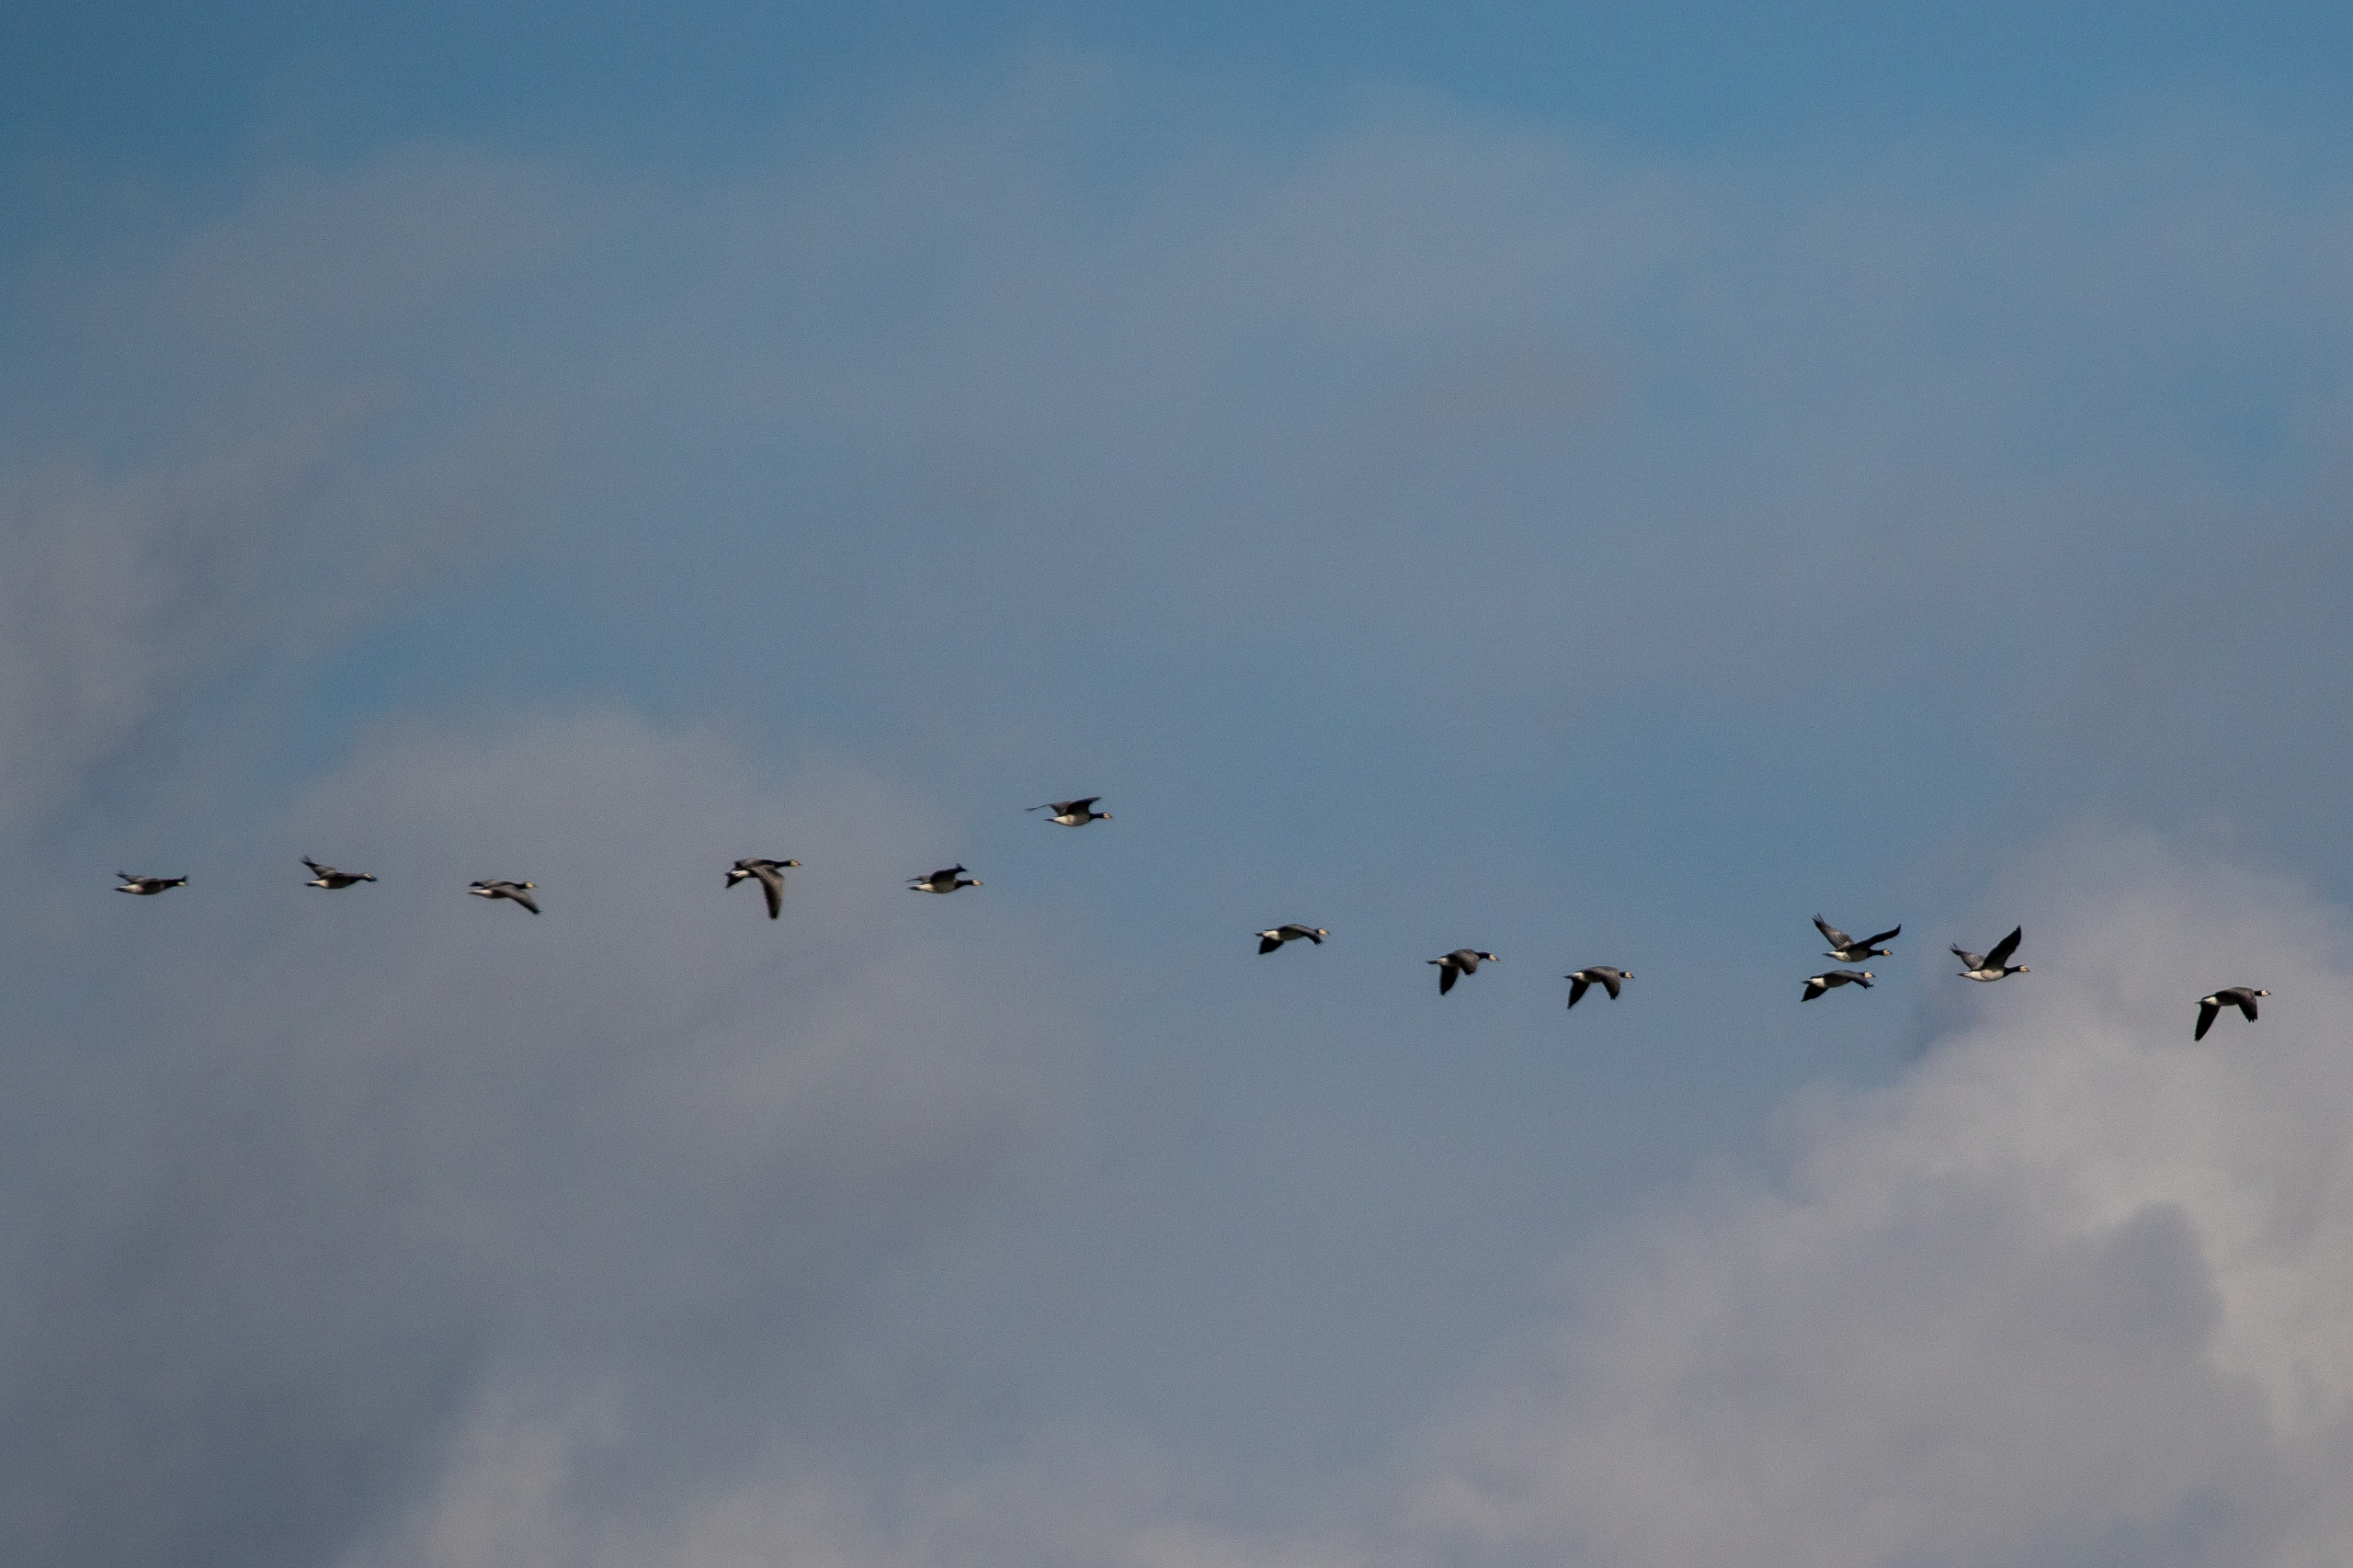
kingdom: Animalia
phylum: Chordata
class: Aves
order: Anseriformes
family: Anatidae
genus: Branta
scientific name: Branta leucopsis
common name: Bramgås
